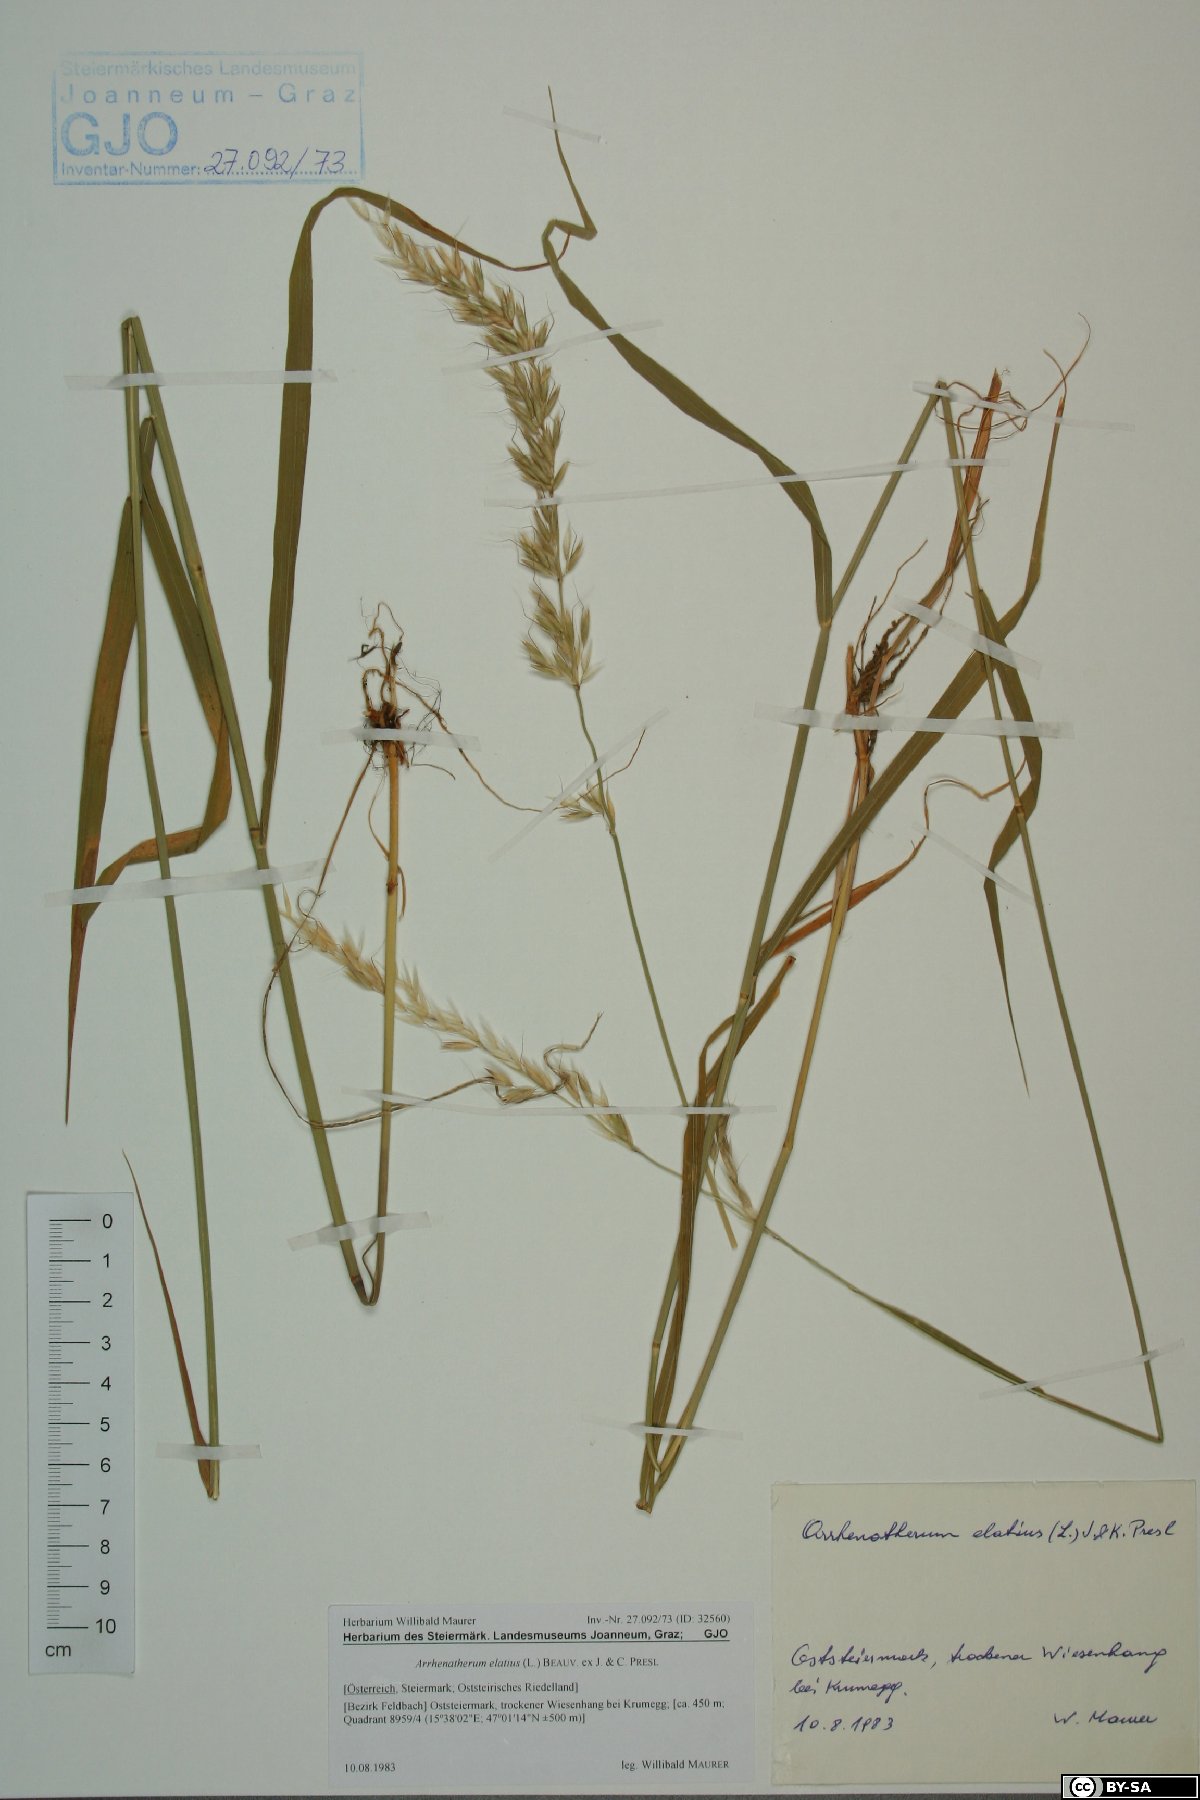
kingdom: Plantae
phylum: Tracheophyta
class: Liliopsida
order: Poales
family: Poaceae
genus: Arrhenatherum
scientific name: Arrhenatherum elatius
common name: Tall oatgrass
